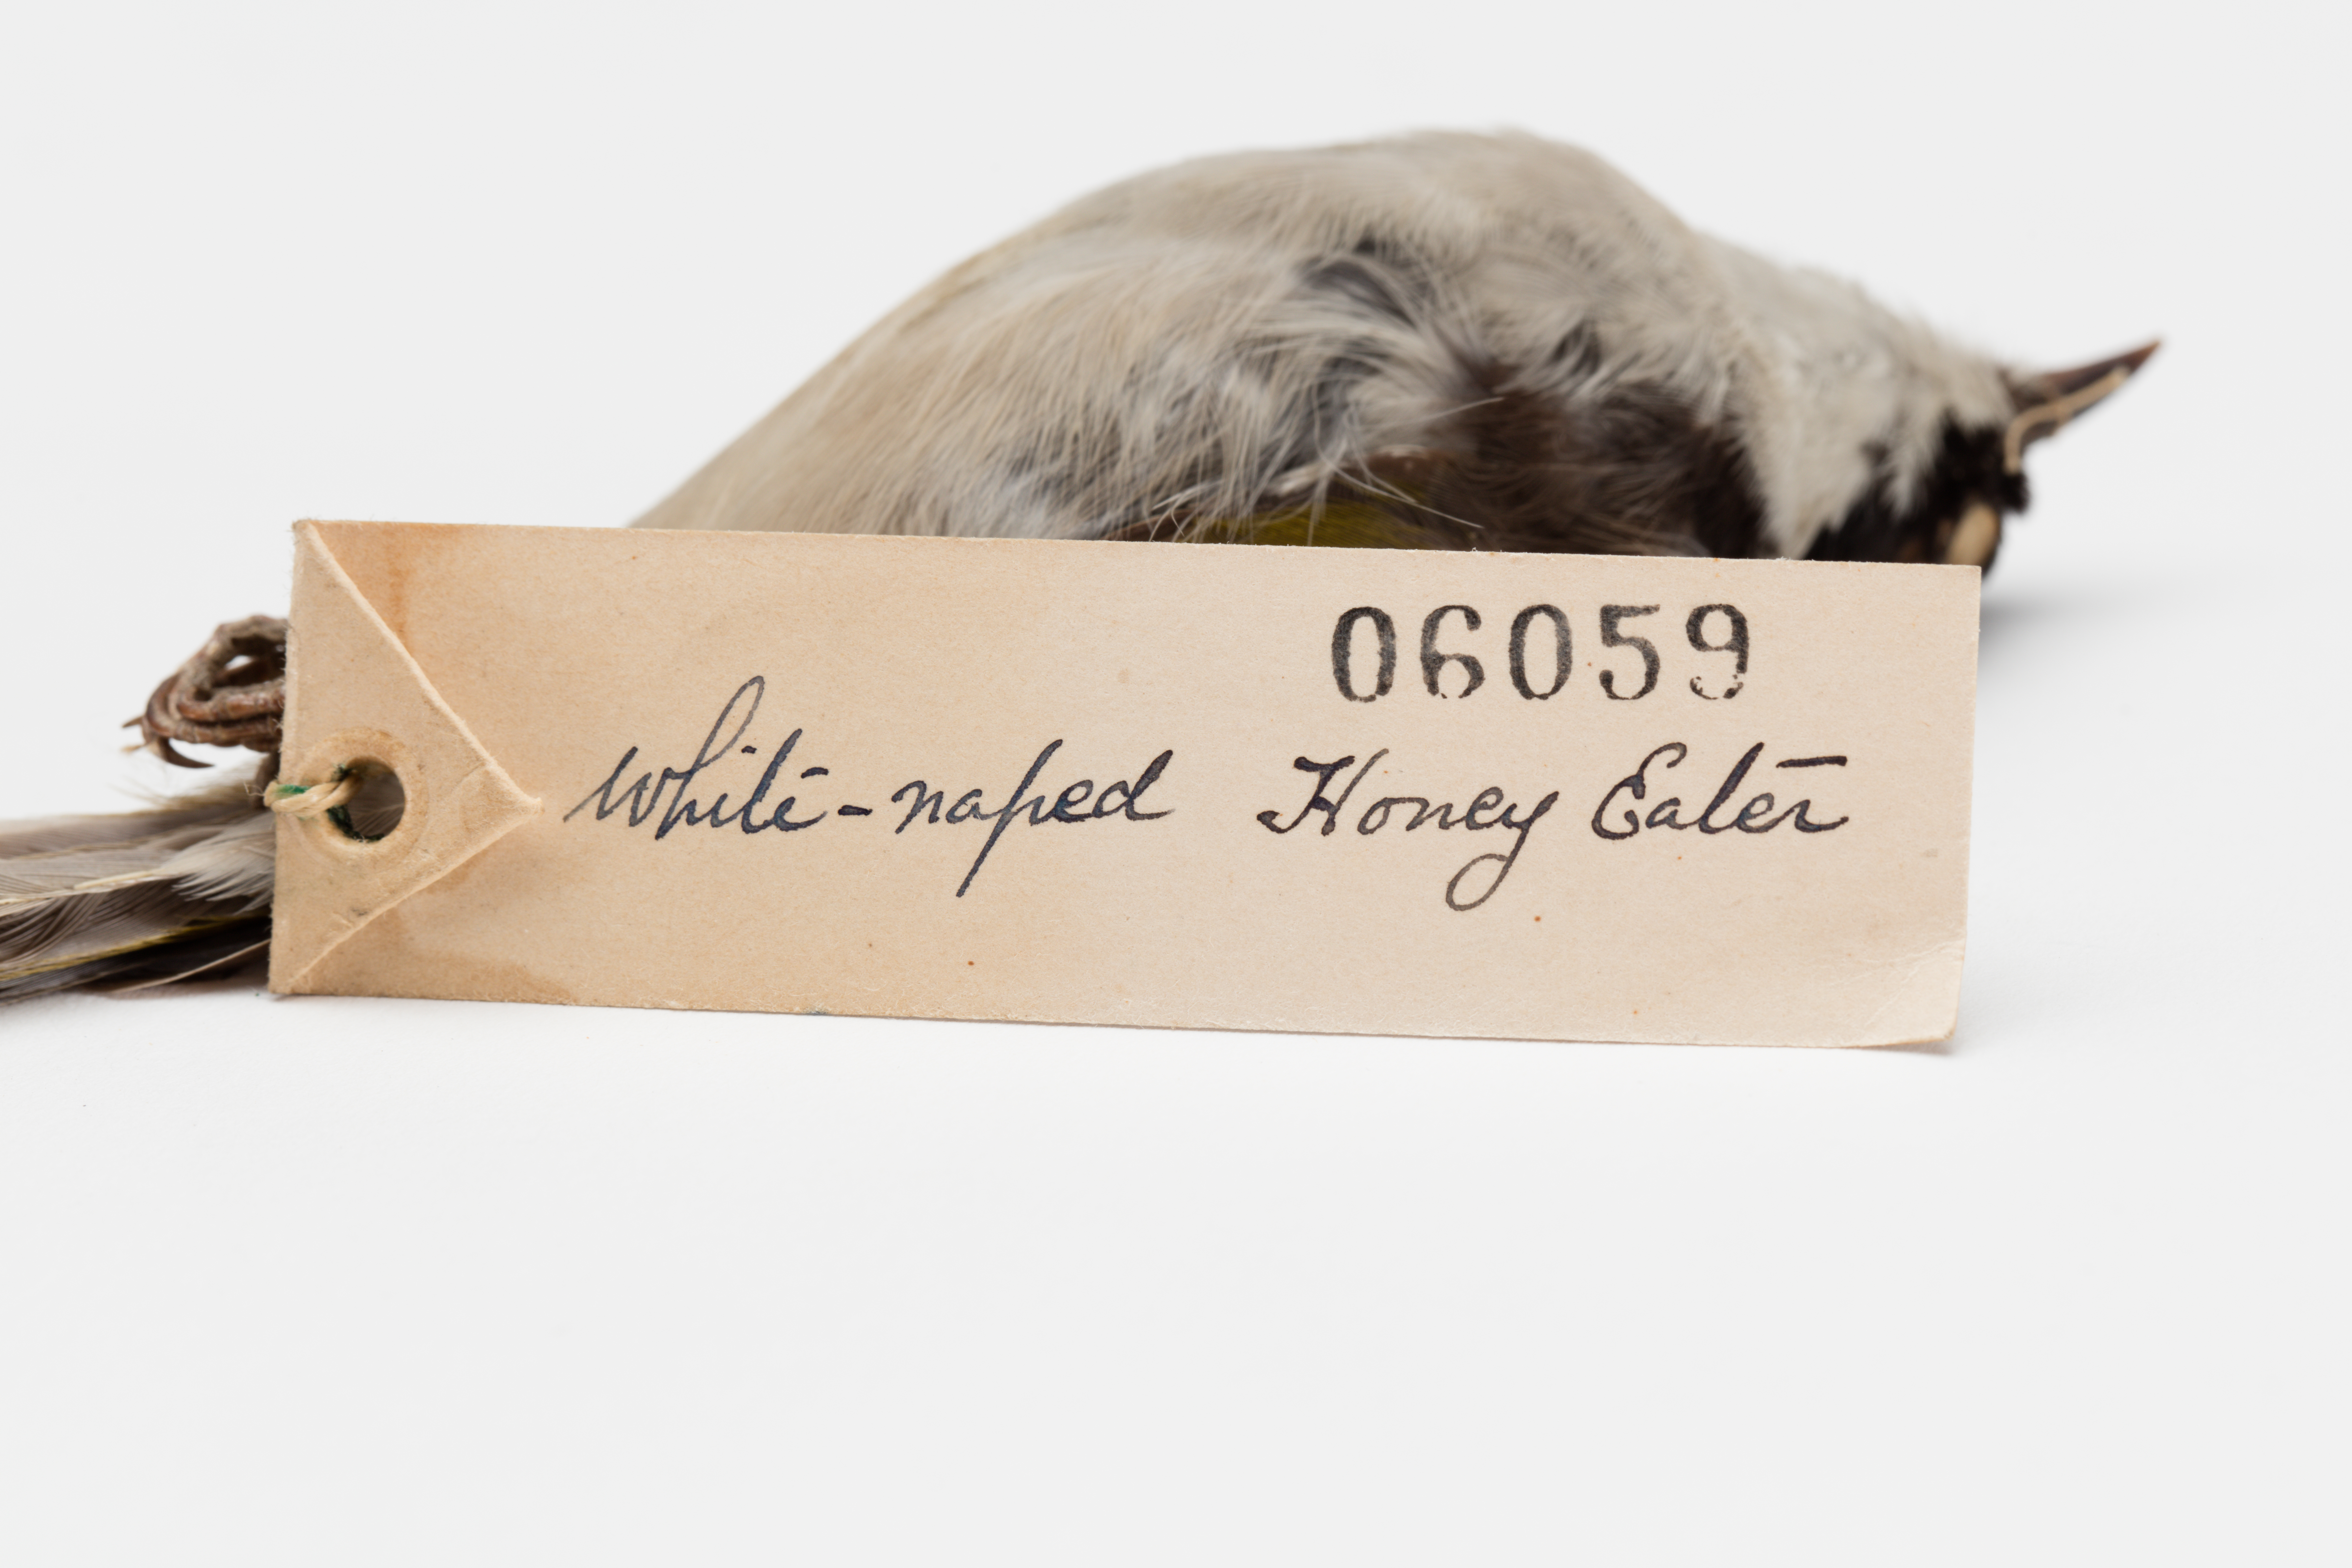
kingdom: Animalia
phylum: Chordata
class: Aves
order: Passeriformes
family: Meliphagidae
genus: Melithreptus
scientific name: Melithreptus lunatus
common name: White-naped honeyeater
